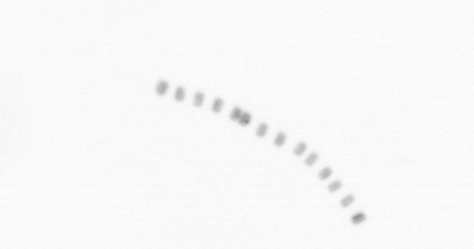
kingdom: Chromista
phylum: Ochrophyta
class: Bacillariophyceae
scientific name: Bacillariophyceae
